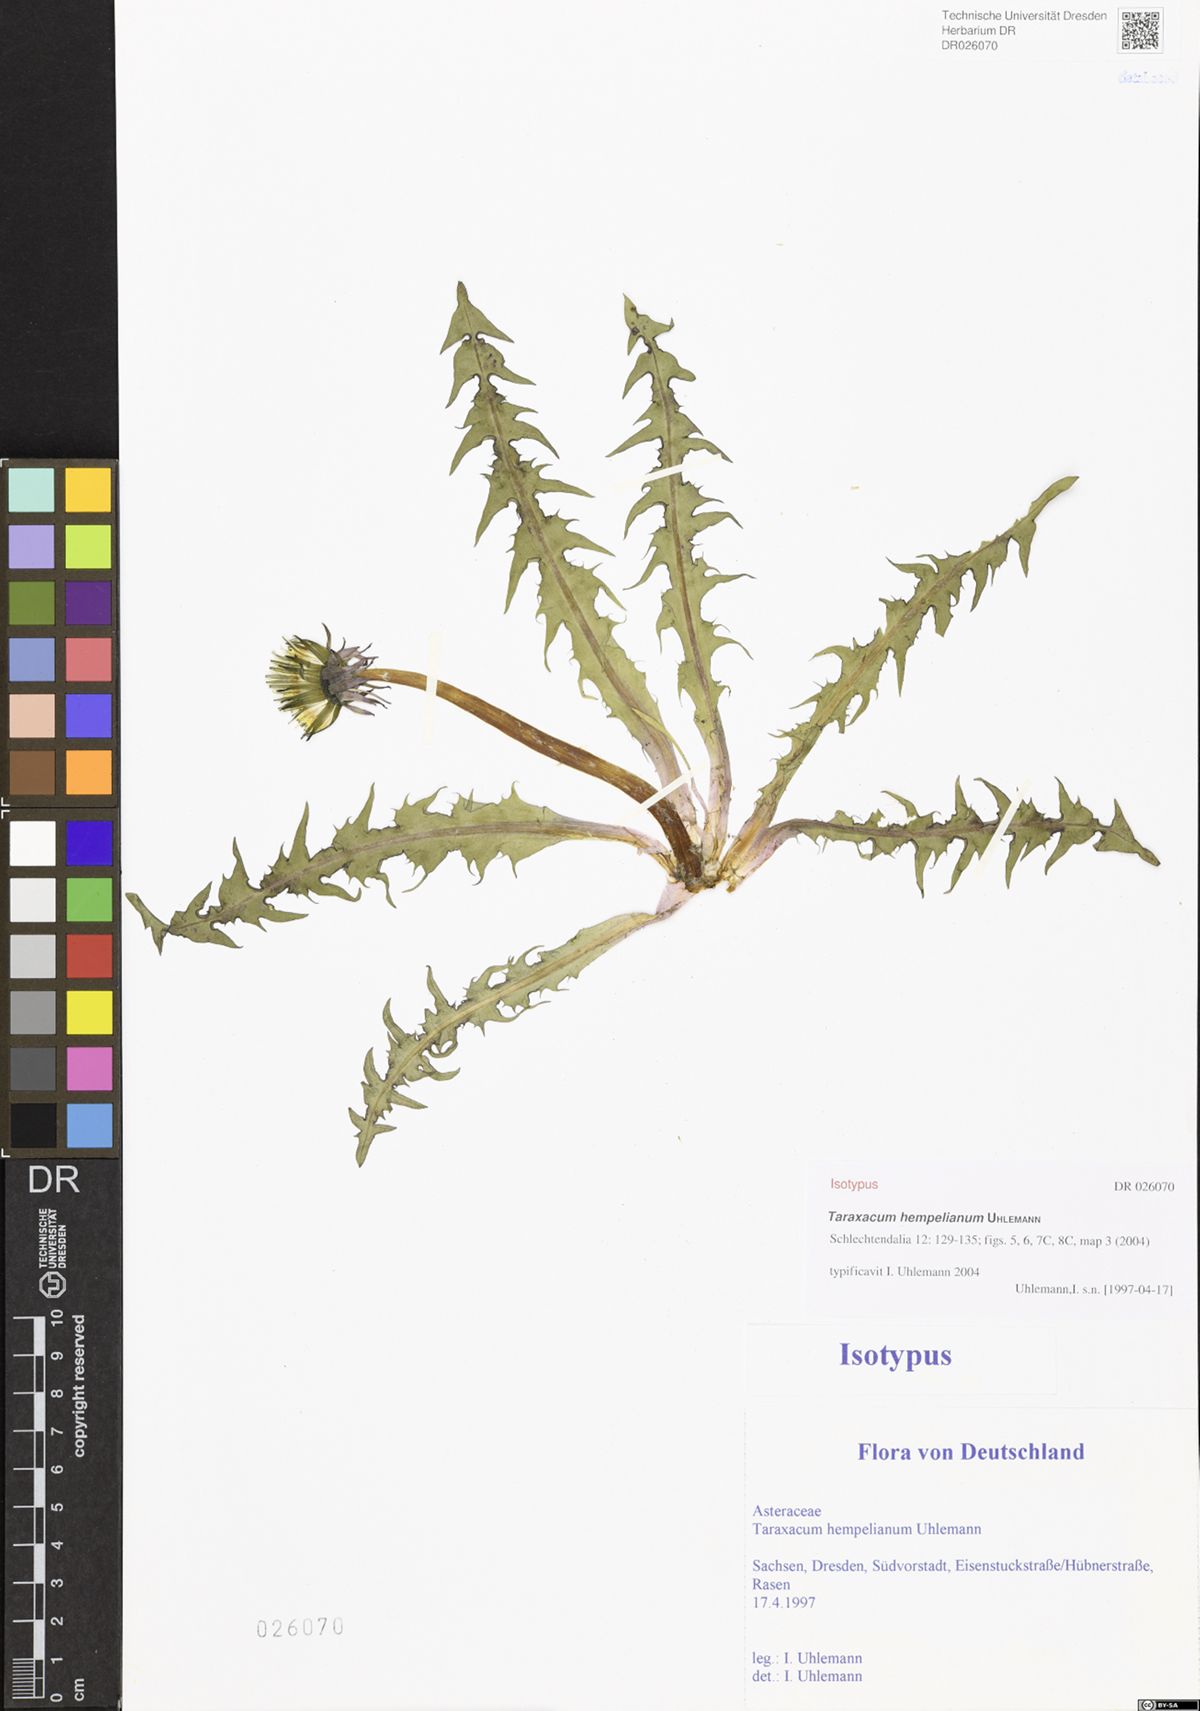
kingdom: Plantae
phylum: Tracheophyta
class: Magnoliopsida
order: Asterales
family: Asteraceae
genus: Taraxacum
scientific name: Taraxacum hempelianum
